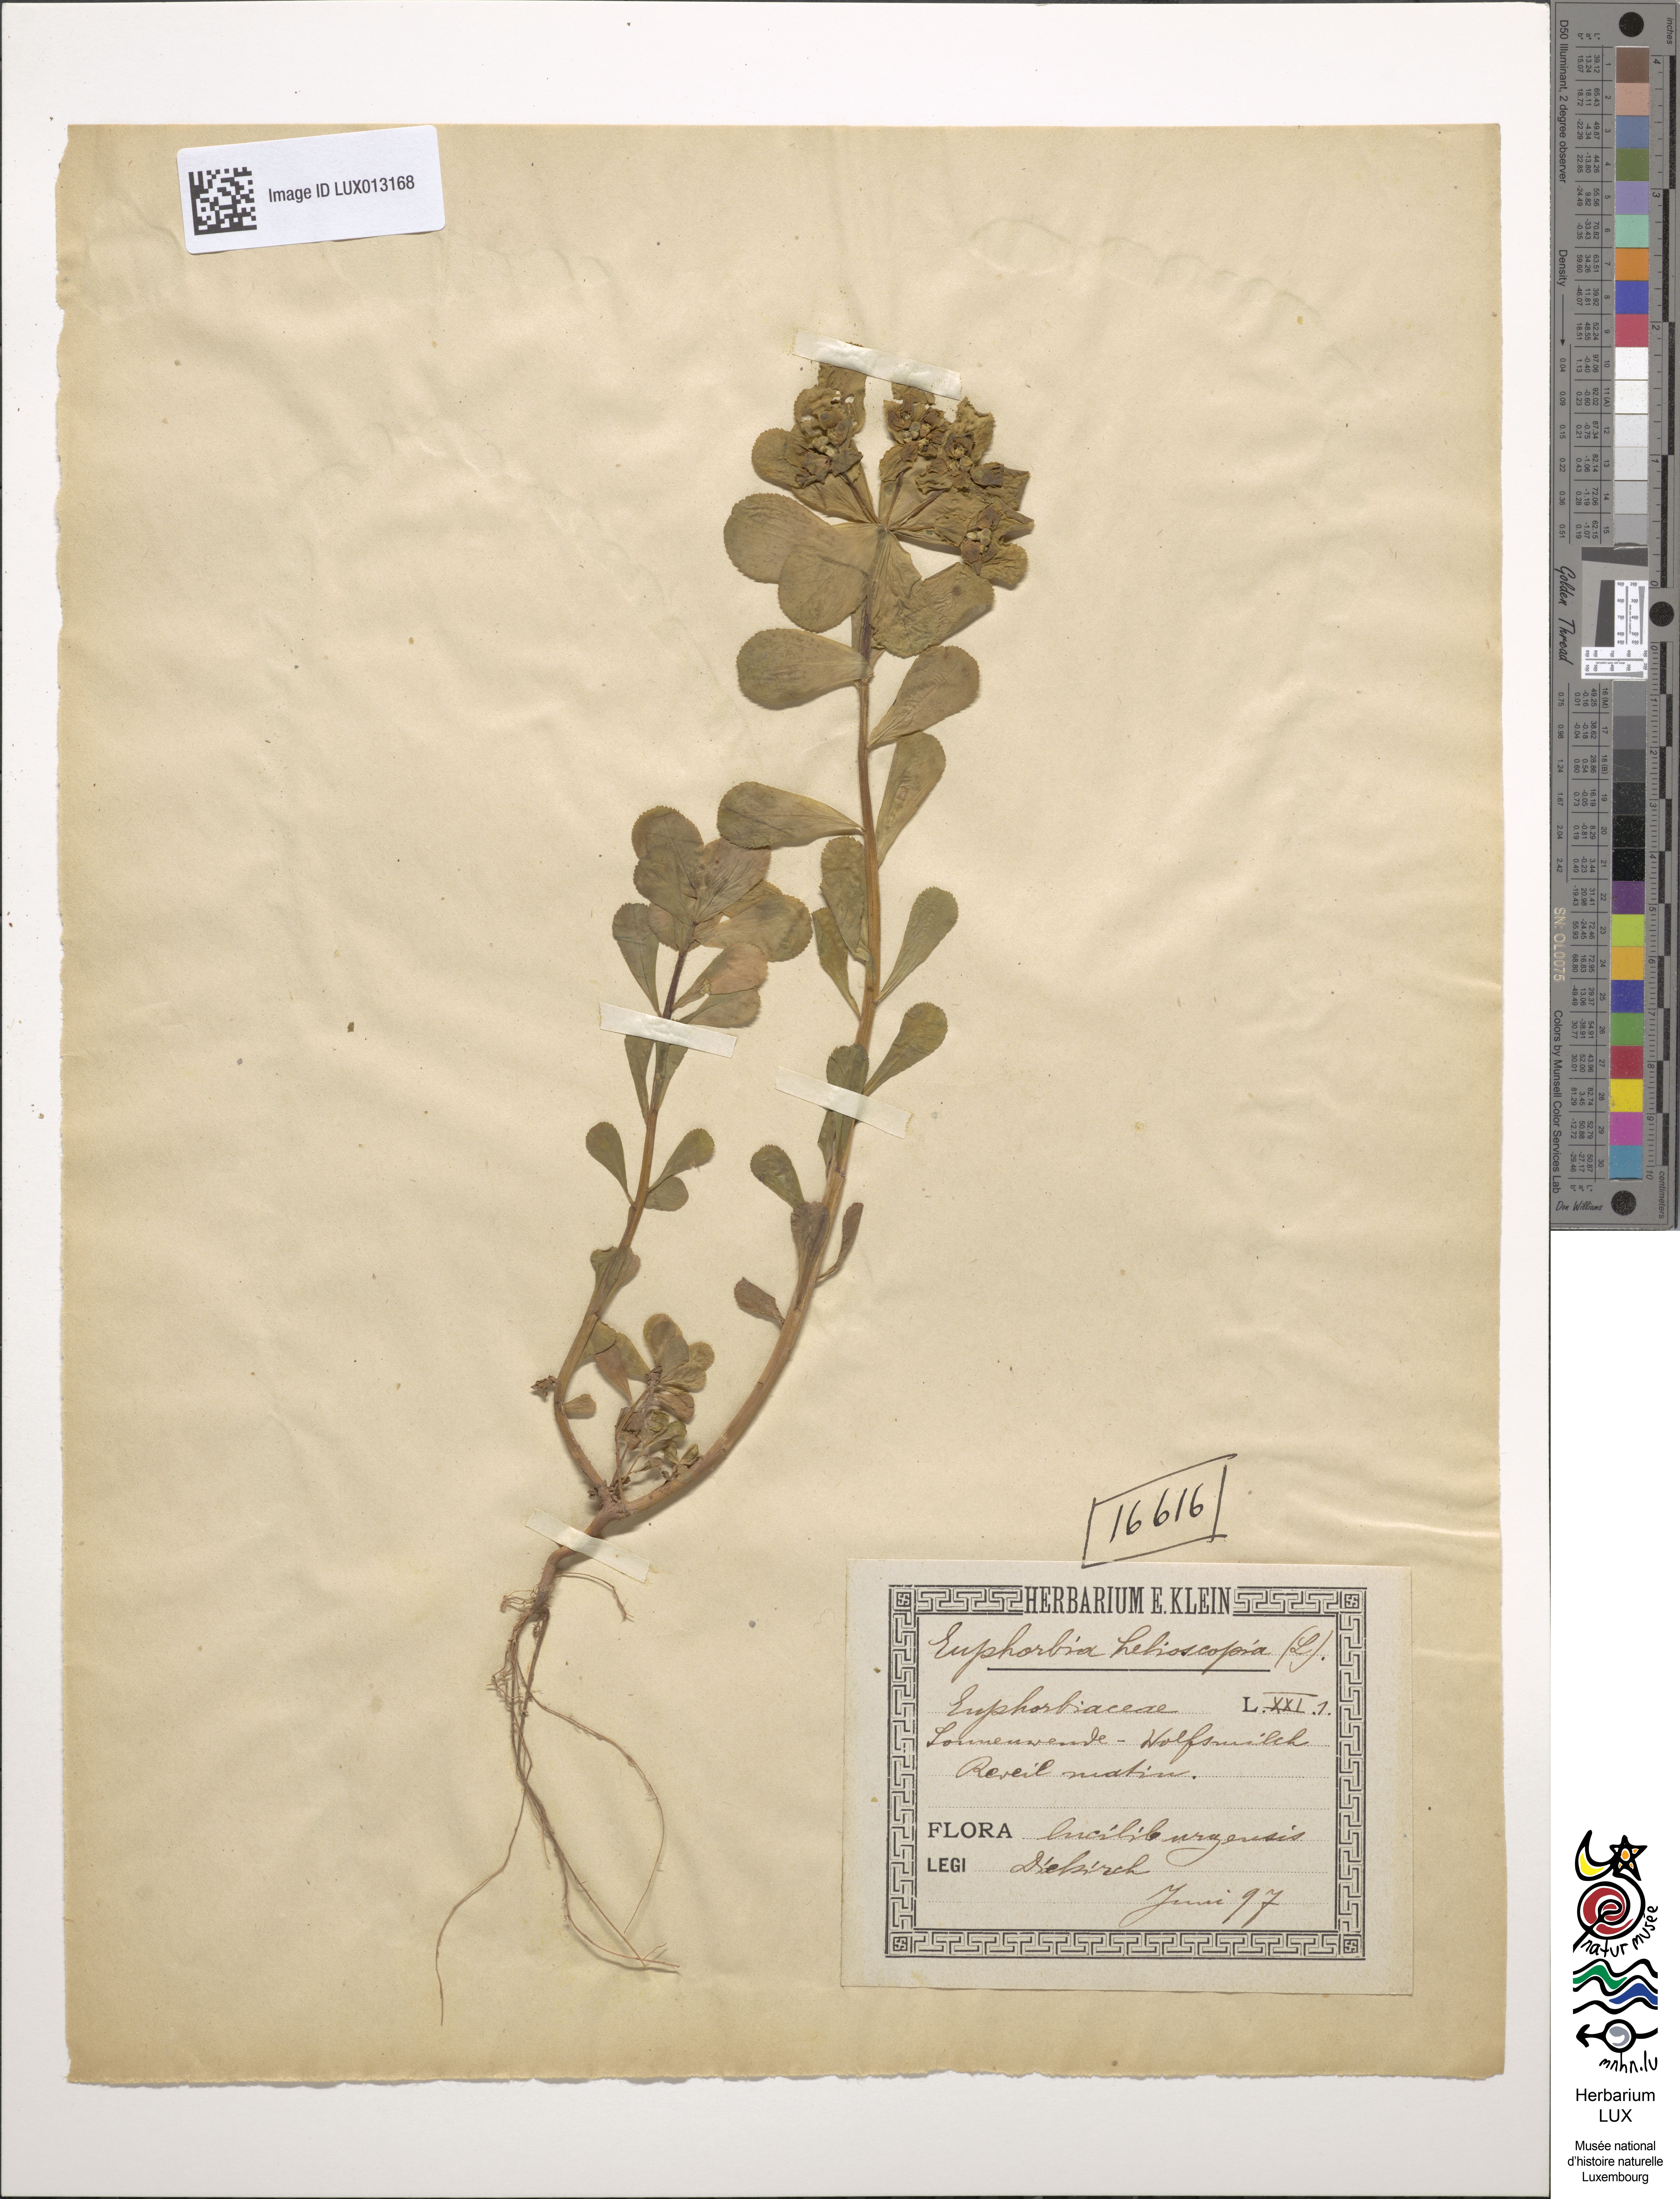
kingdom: Plantae
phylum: Tracheophyta
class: Magnoliopsida
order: Malpighiales
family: Euphorbiaceae
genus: Euphorbia
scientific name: Euphorbia helioscopia
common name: Sun spurge
